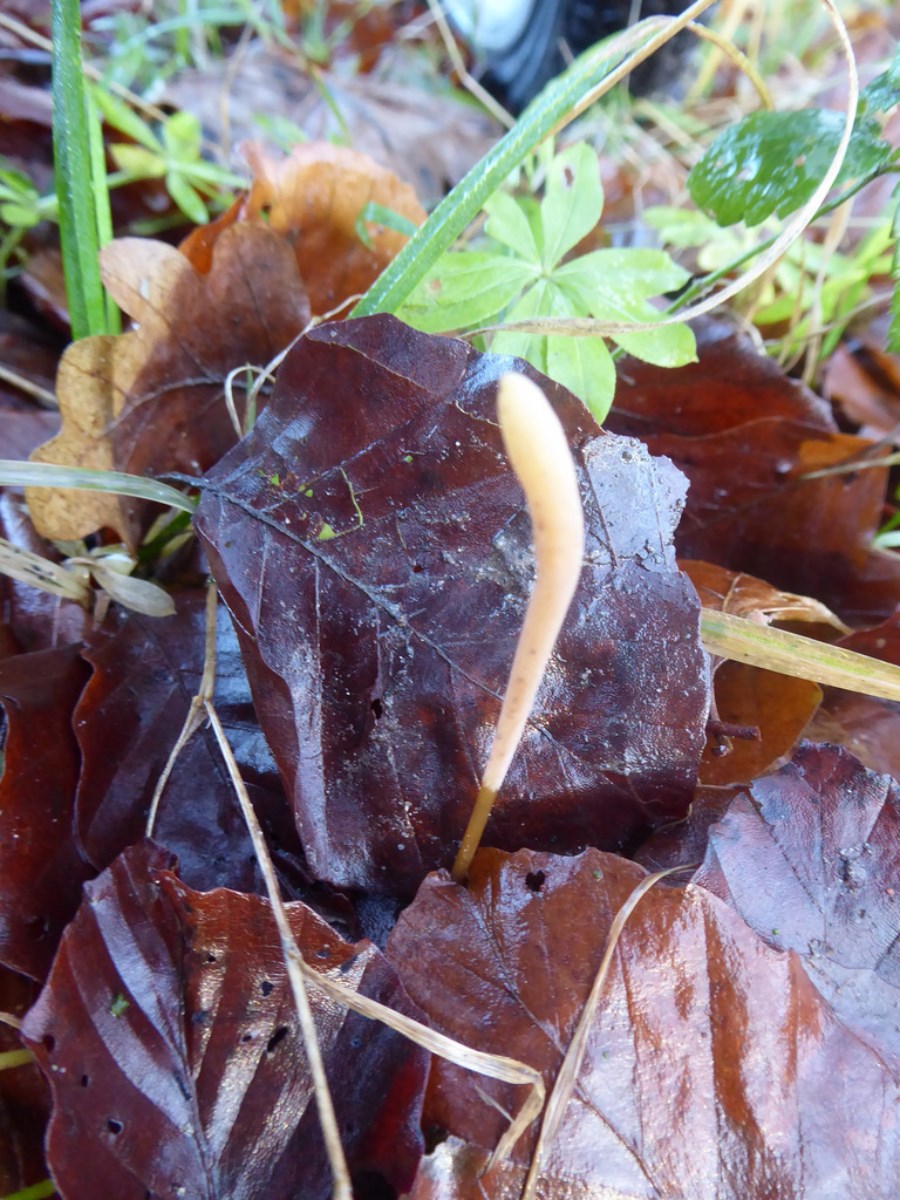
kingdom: Fungi
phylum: Basidiomycota
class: Agaricomycetes
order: Agaricales
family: Typhulaceae
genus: Typhula
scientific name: Typhula fistulosa
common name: pibet rørkølle
